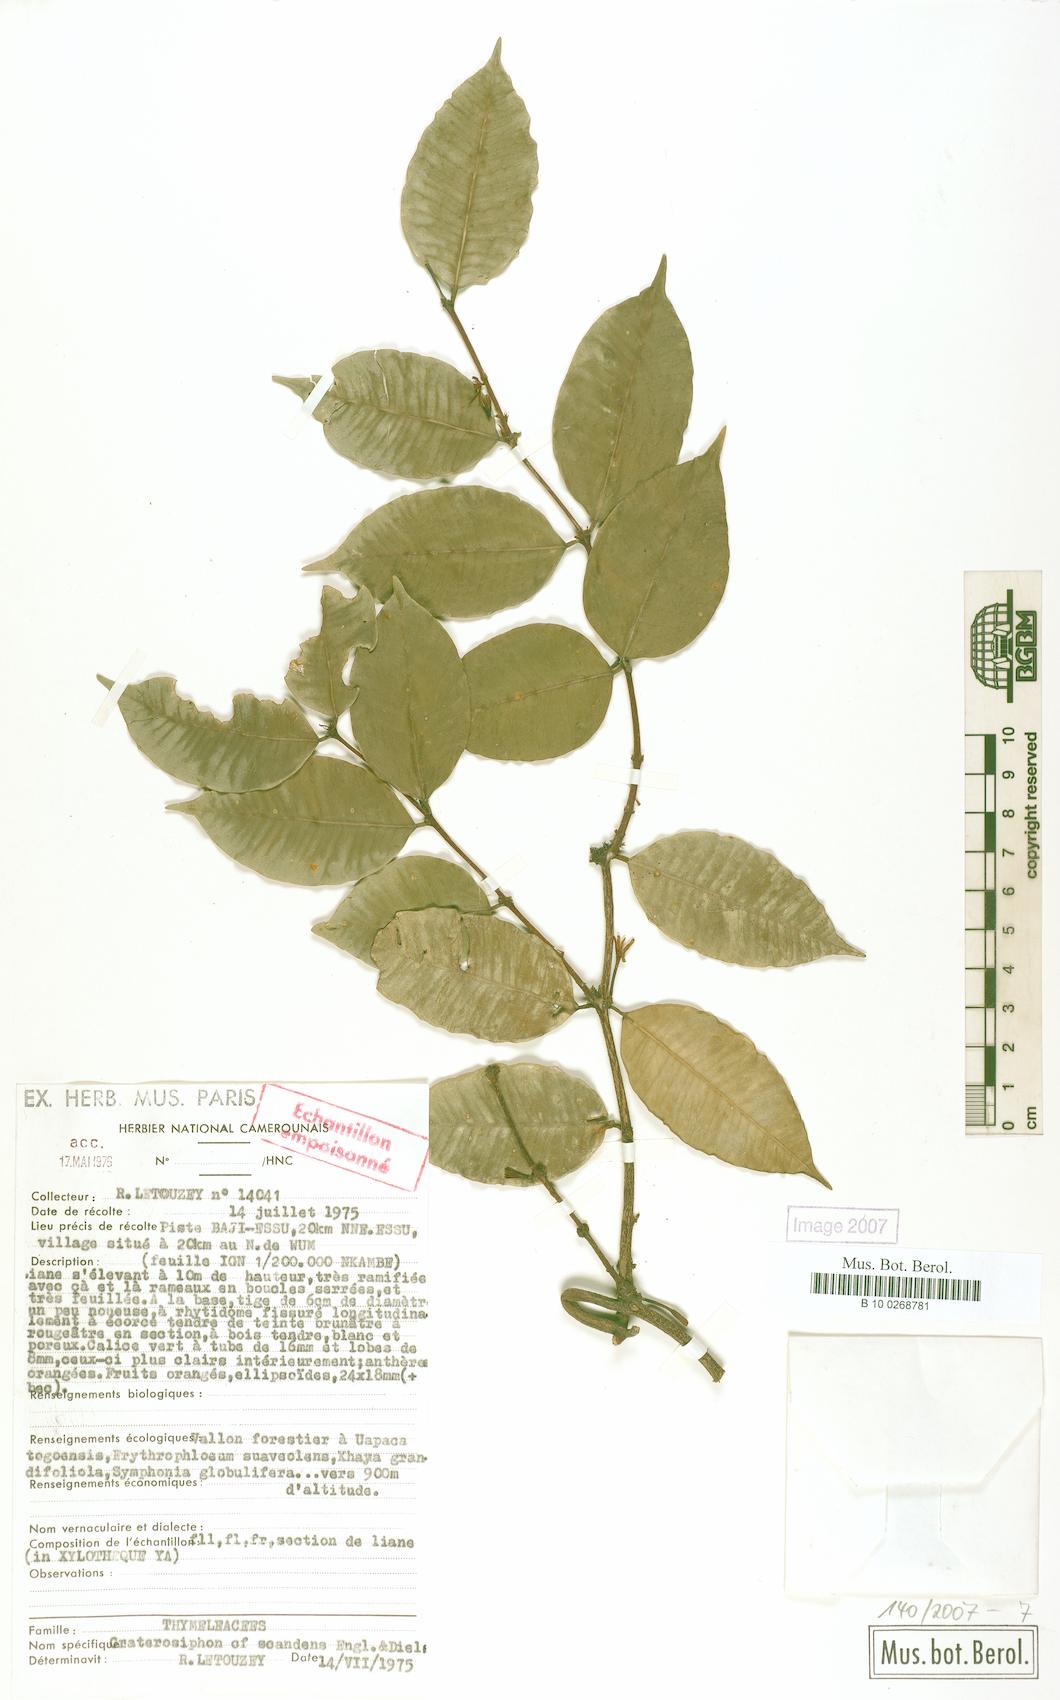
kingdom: Plantae
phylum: Tracheophyta
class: Magnoliopsida
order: Malvales
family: Thymelaeaceae
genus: Craterosiphon
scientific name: Craterosiphon scandens
